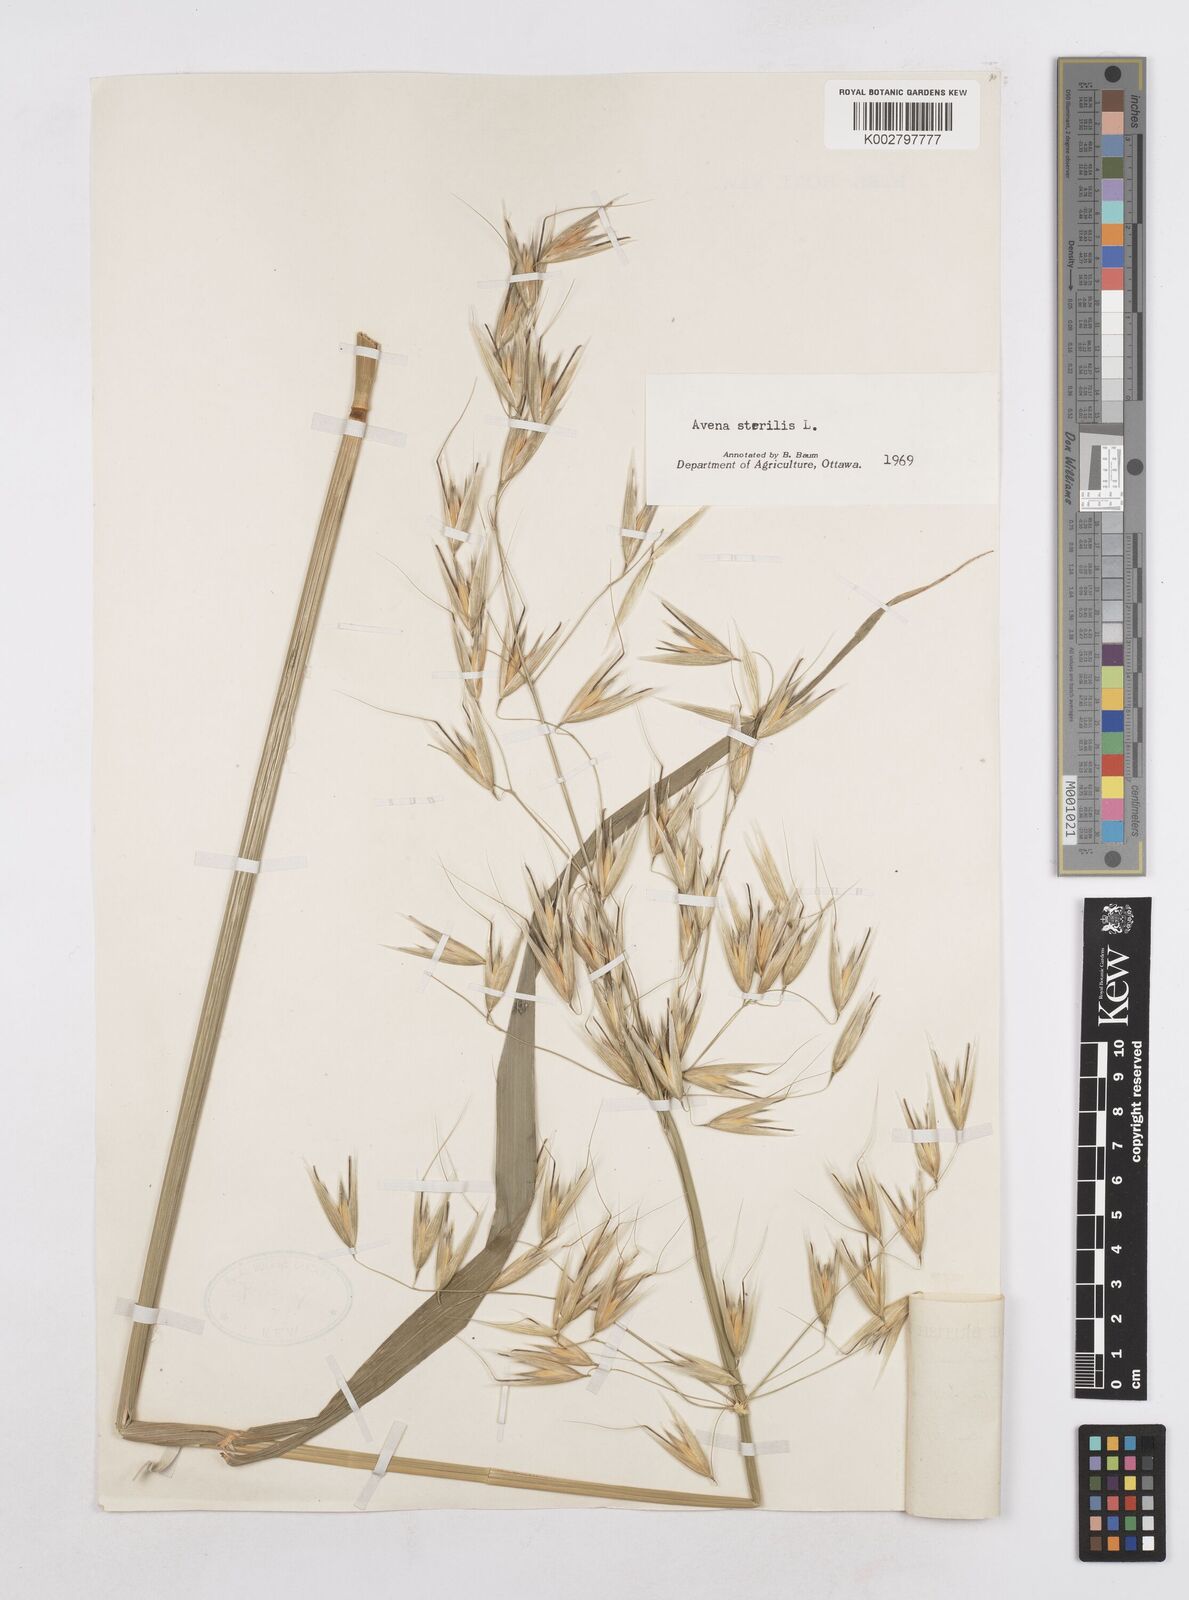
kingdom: Plantae
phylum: Tracheophyta
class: Liliopsida
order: Poales
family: Poaceae
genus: Avena
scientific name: Avena sterilis
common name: Animated oat
